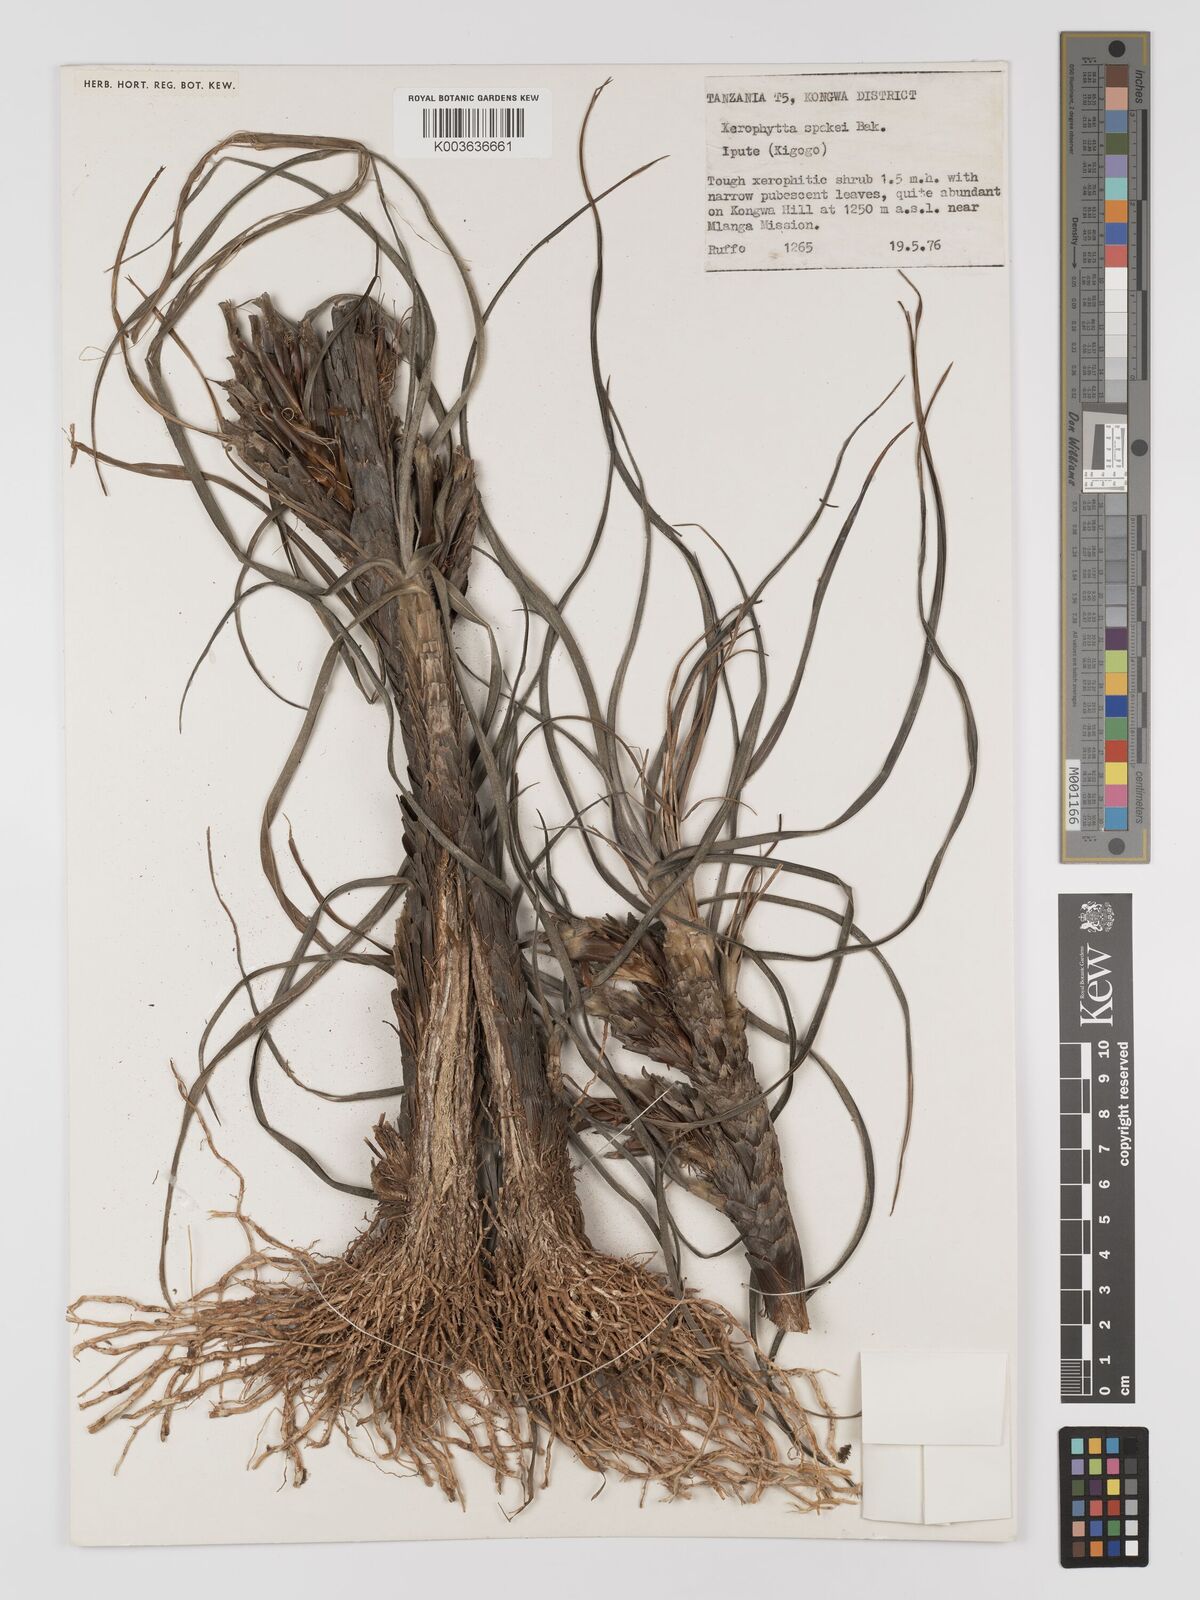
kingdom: Plantae
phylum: Tracheophyta
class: Liliopsida
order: Pandanales
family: Velloziaceae
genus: Xerophyta
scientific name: Xerophyta spekei
